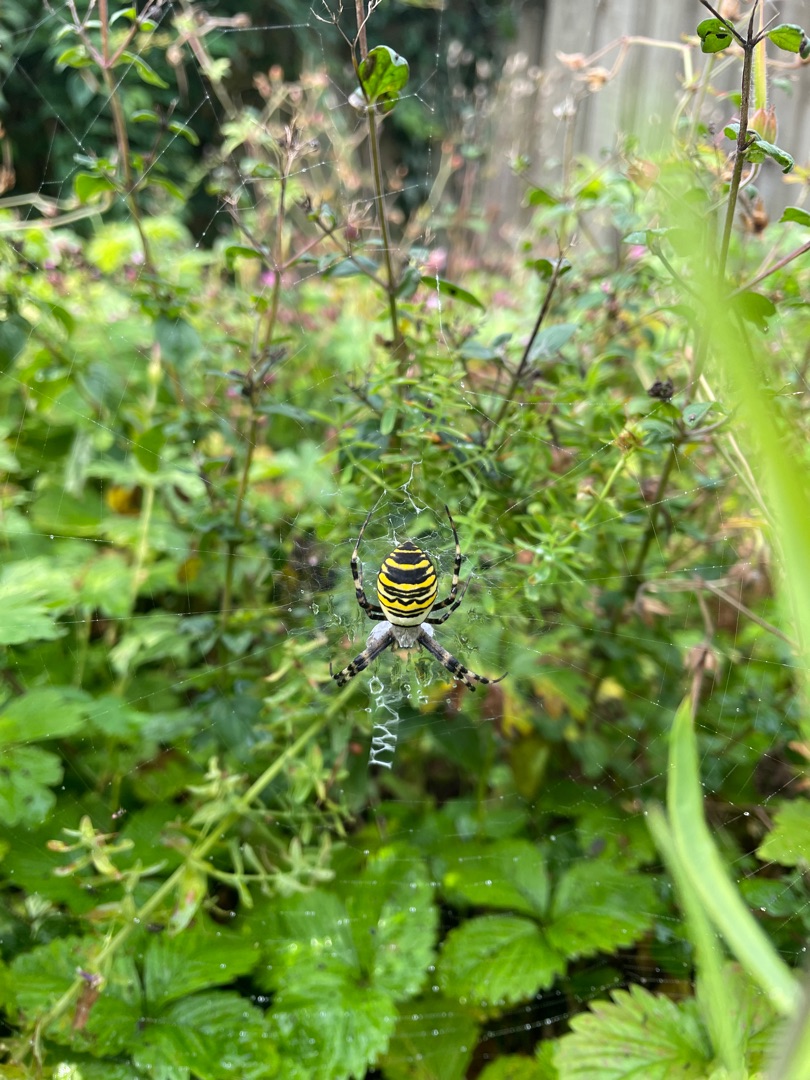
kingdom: Animalia
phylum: Arthropoda
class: Arachnida
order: Araneae
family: Araneidae
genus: Argiope
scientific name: Argiope bruennichi
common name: Hvepseedderkop
